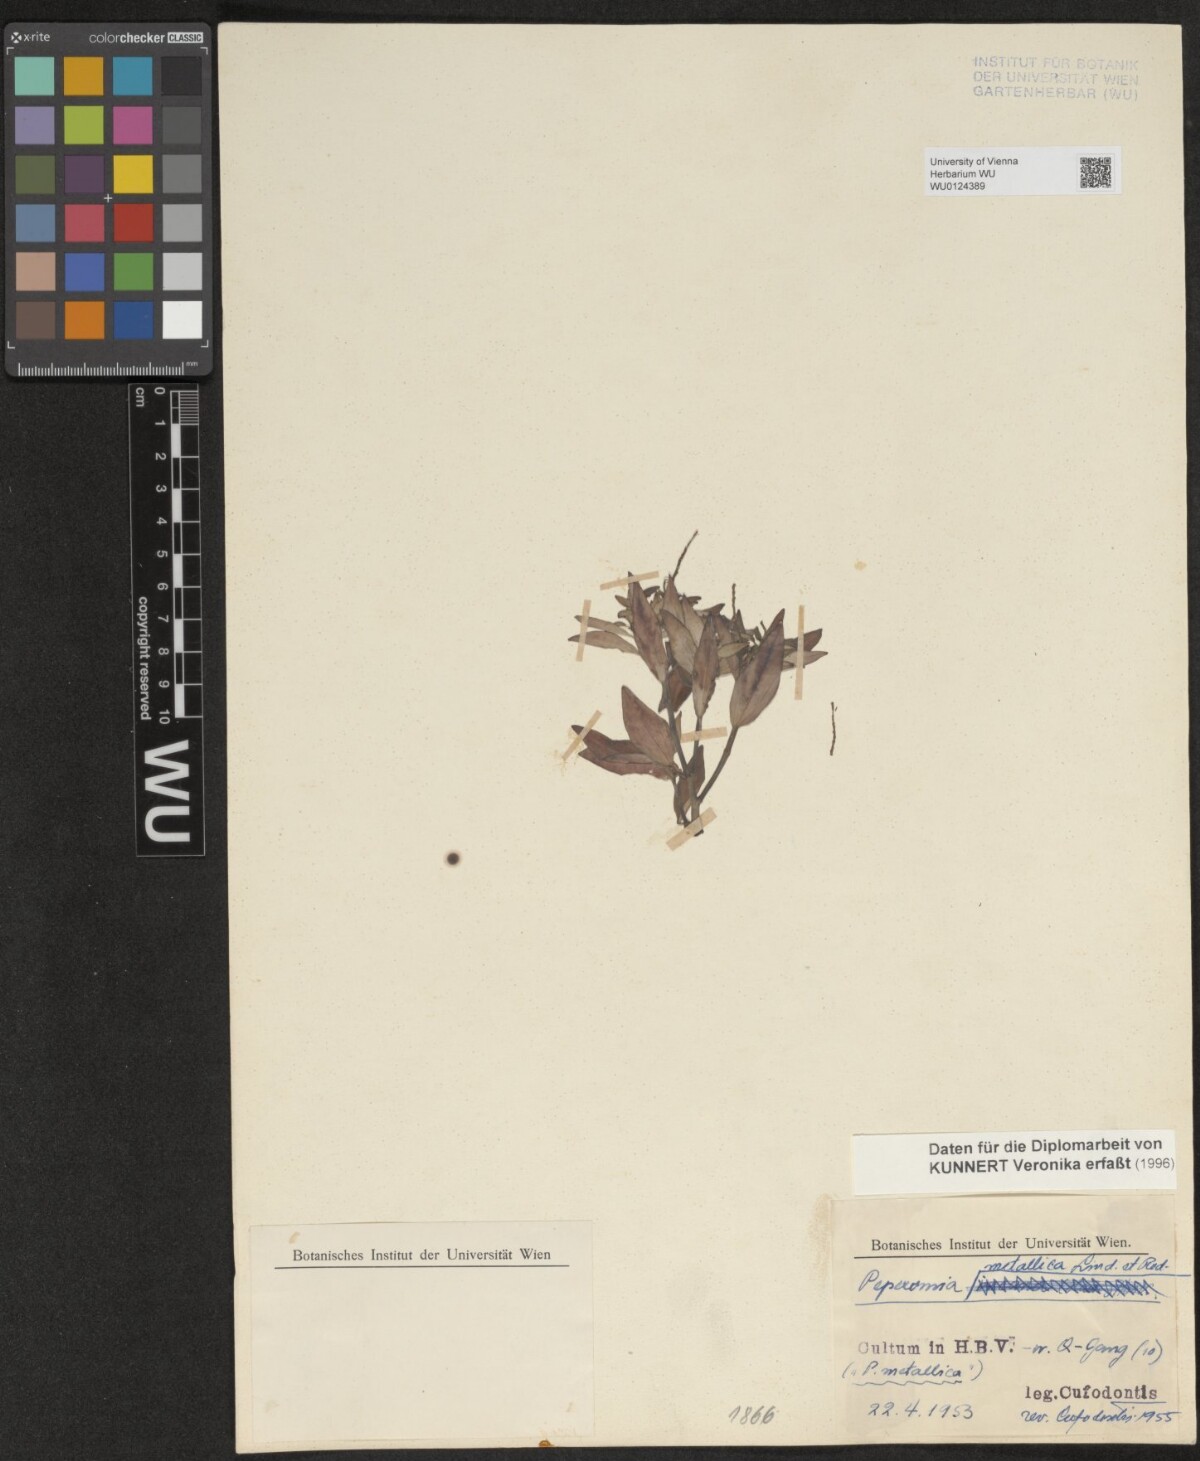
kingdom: Plantae
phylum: Tracheophyta
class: Magnoliopsida
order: Piperales
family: Piperaceae
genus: Peperomia
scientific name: Peperomia metallica
